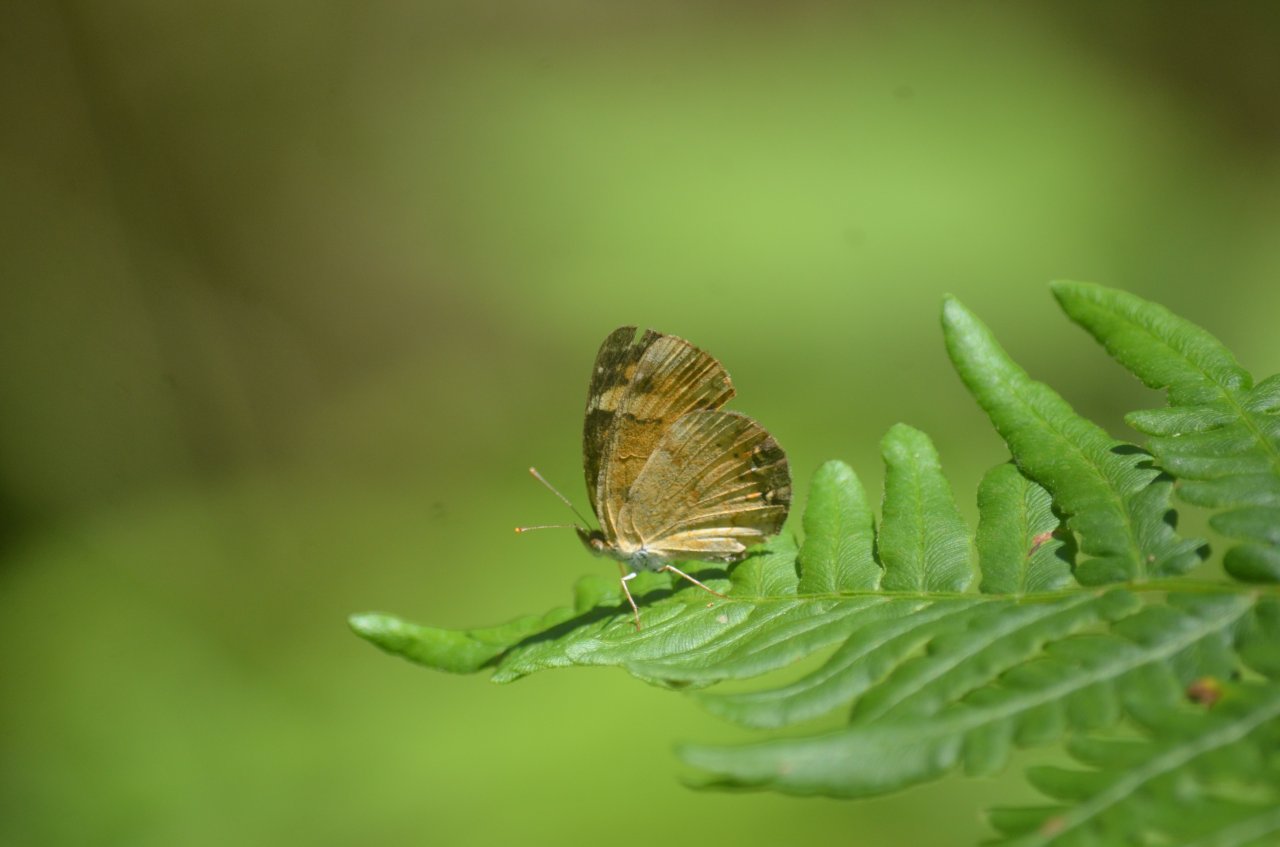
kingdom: Animalia
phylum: Arthropoda
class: Insecta
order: Lepidoptera
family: Nymphalidae
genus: Phyciodes
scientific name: Phyciodes
